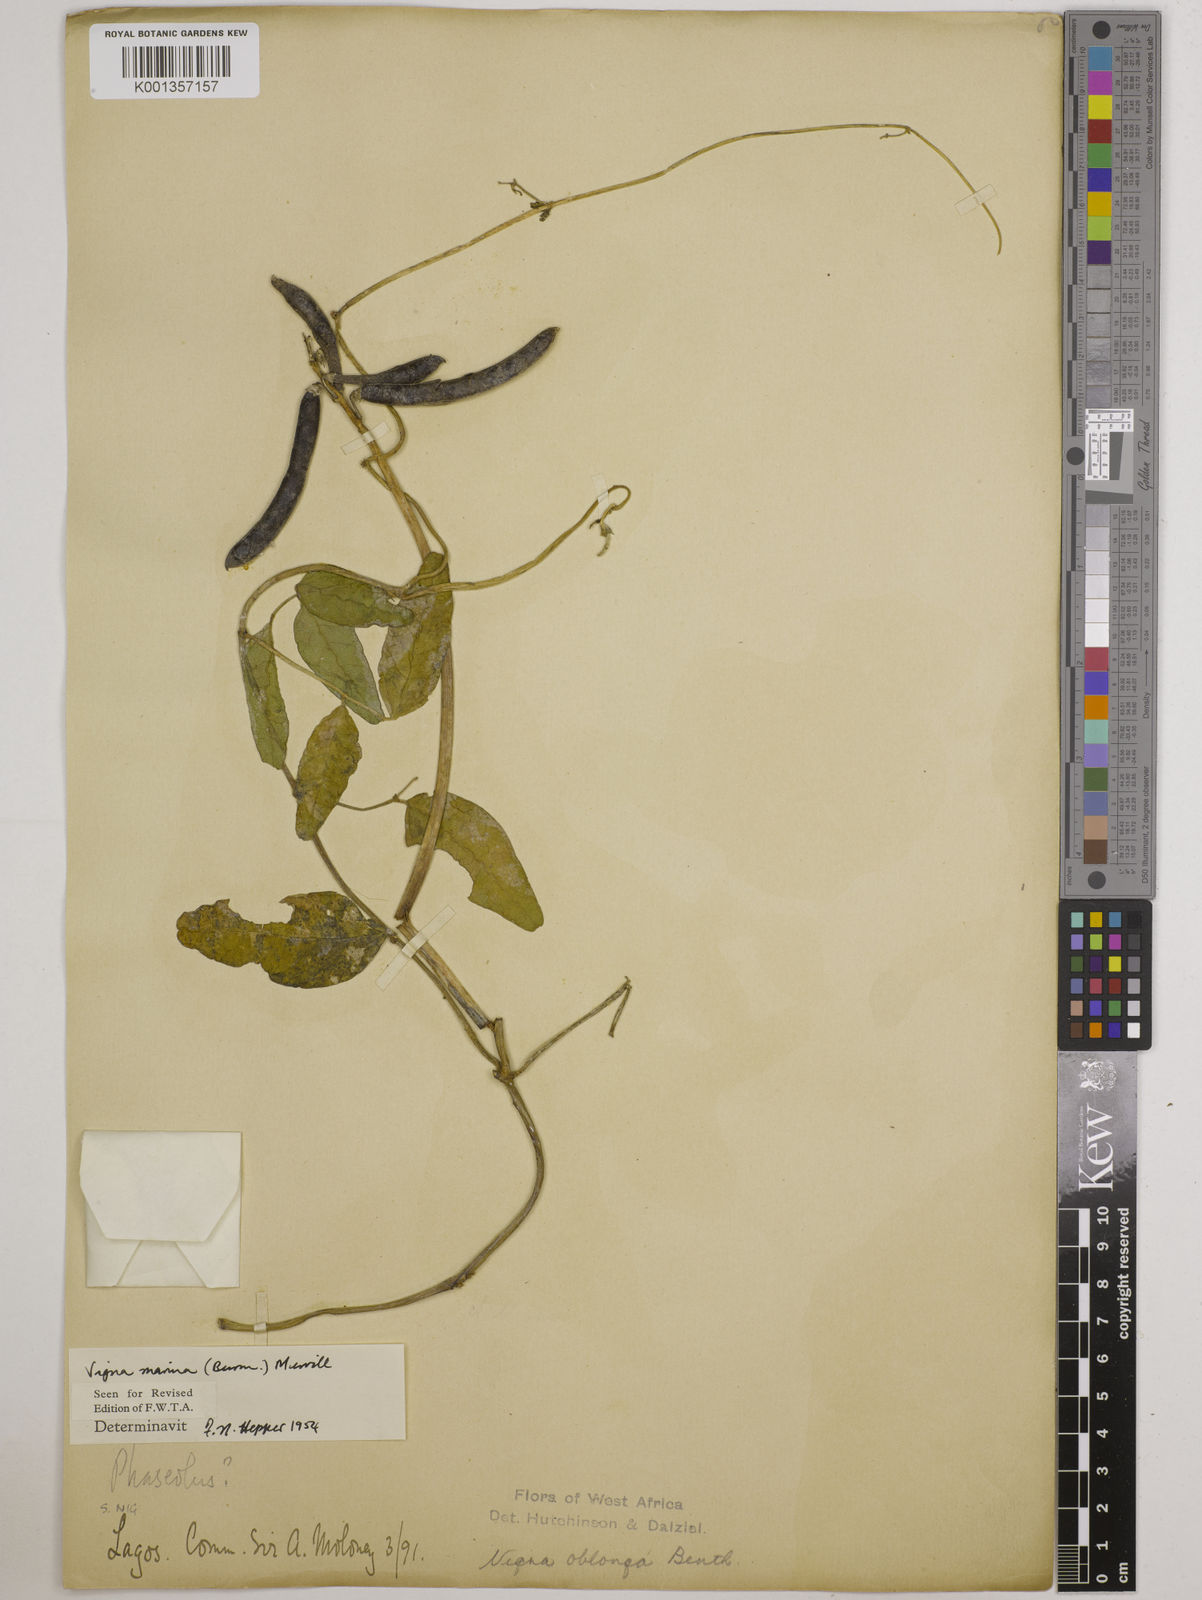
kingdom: Plantae
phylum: Tracheophyta
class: Magnoliopsida
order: Fabales
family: Fabaceae
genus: Vigna
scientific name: Vigna marina
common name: Dune-bean
